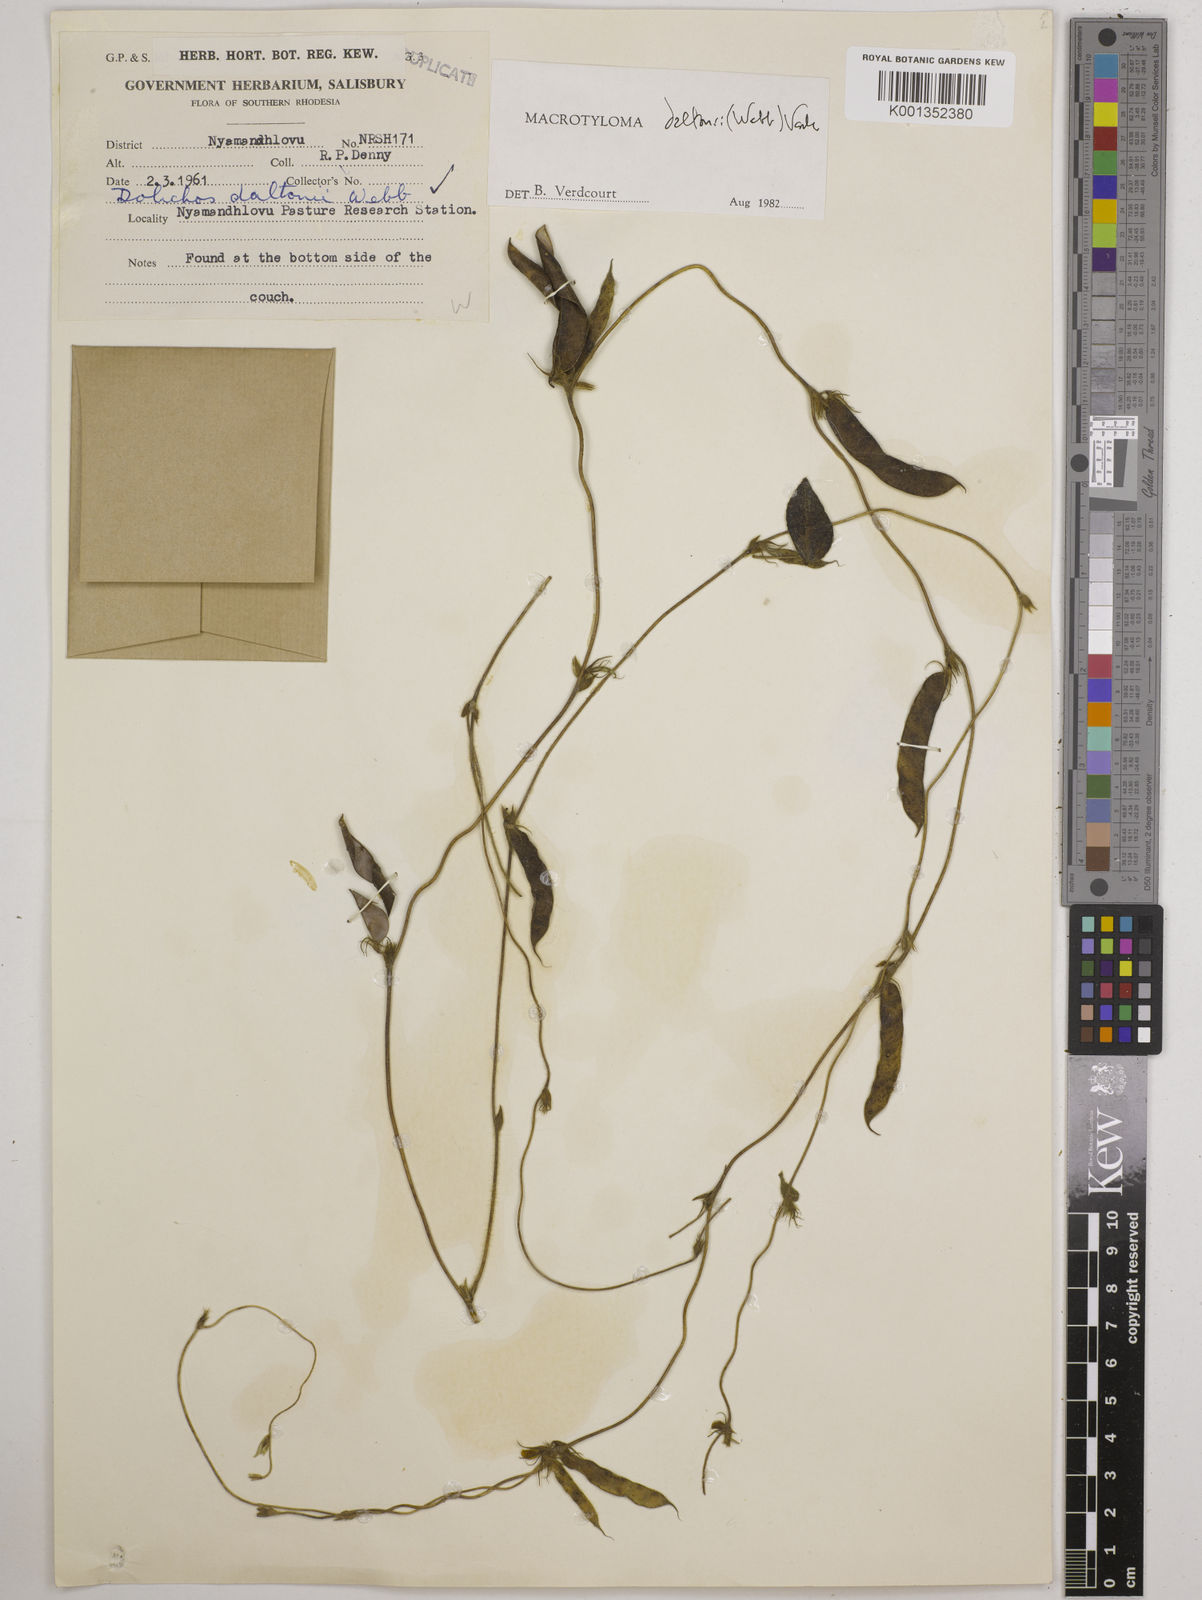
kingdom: Plantae
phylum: Tracheophyta
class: Magnoliopsida
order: Fabales
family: Fabaceae
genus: Macrotyloma
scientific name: Macrotyloma daltonii
